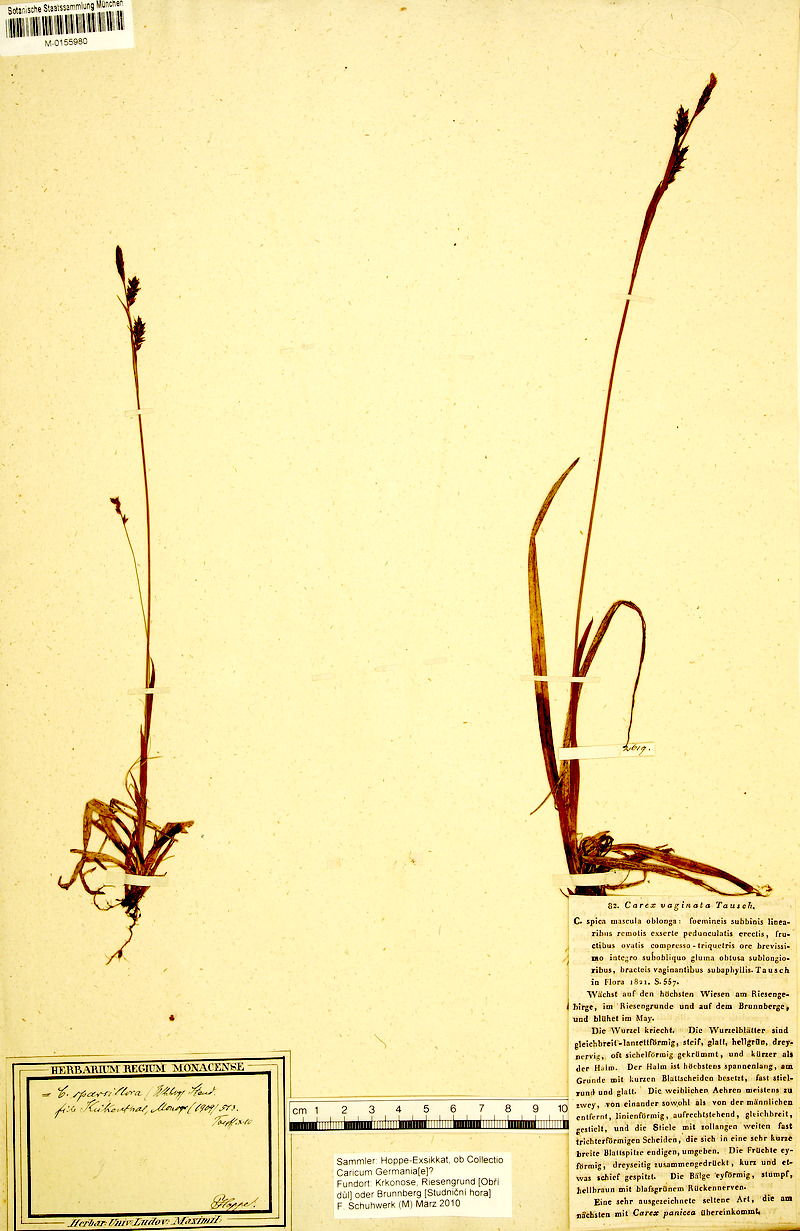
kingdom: Plantae
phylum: Tracheophyta
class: Liliopsida
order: Poales
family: Cyperaceae
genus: Carex
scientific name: Carex vaginata
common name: Sheathed sedge
